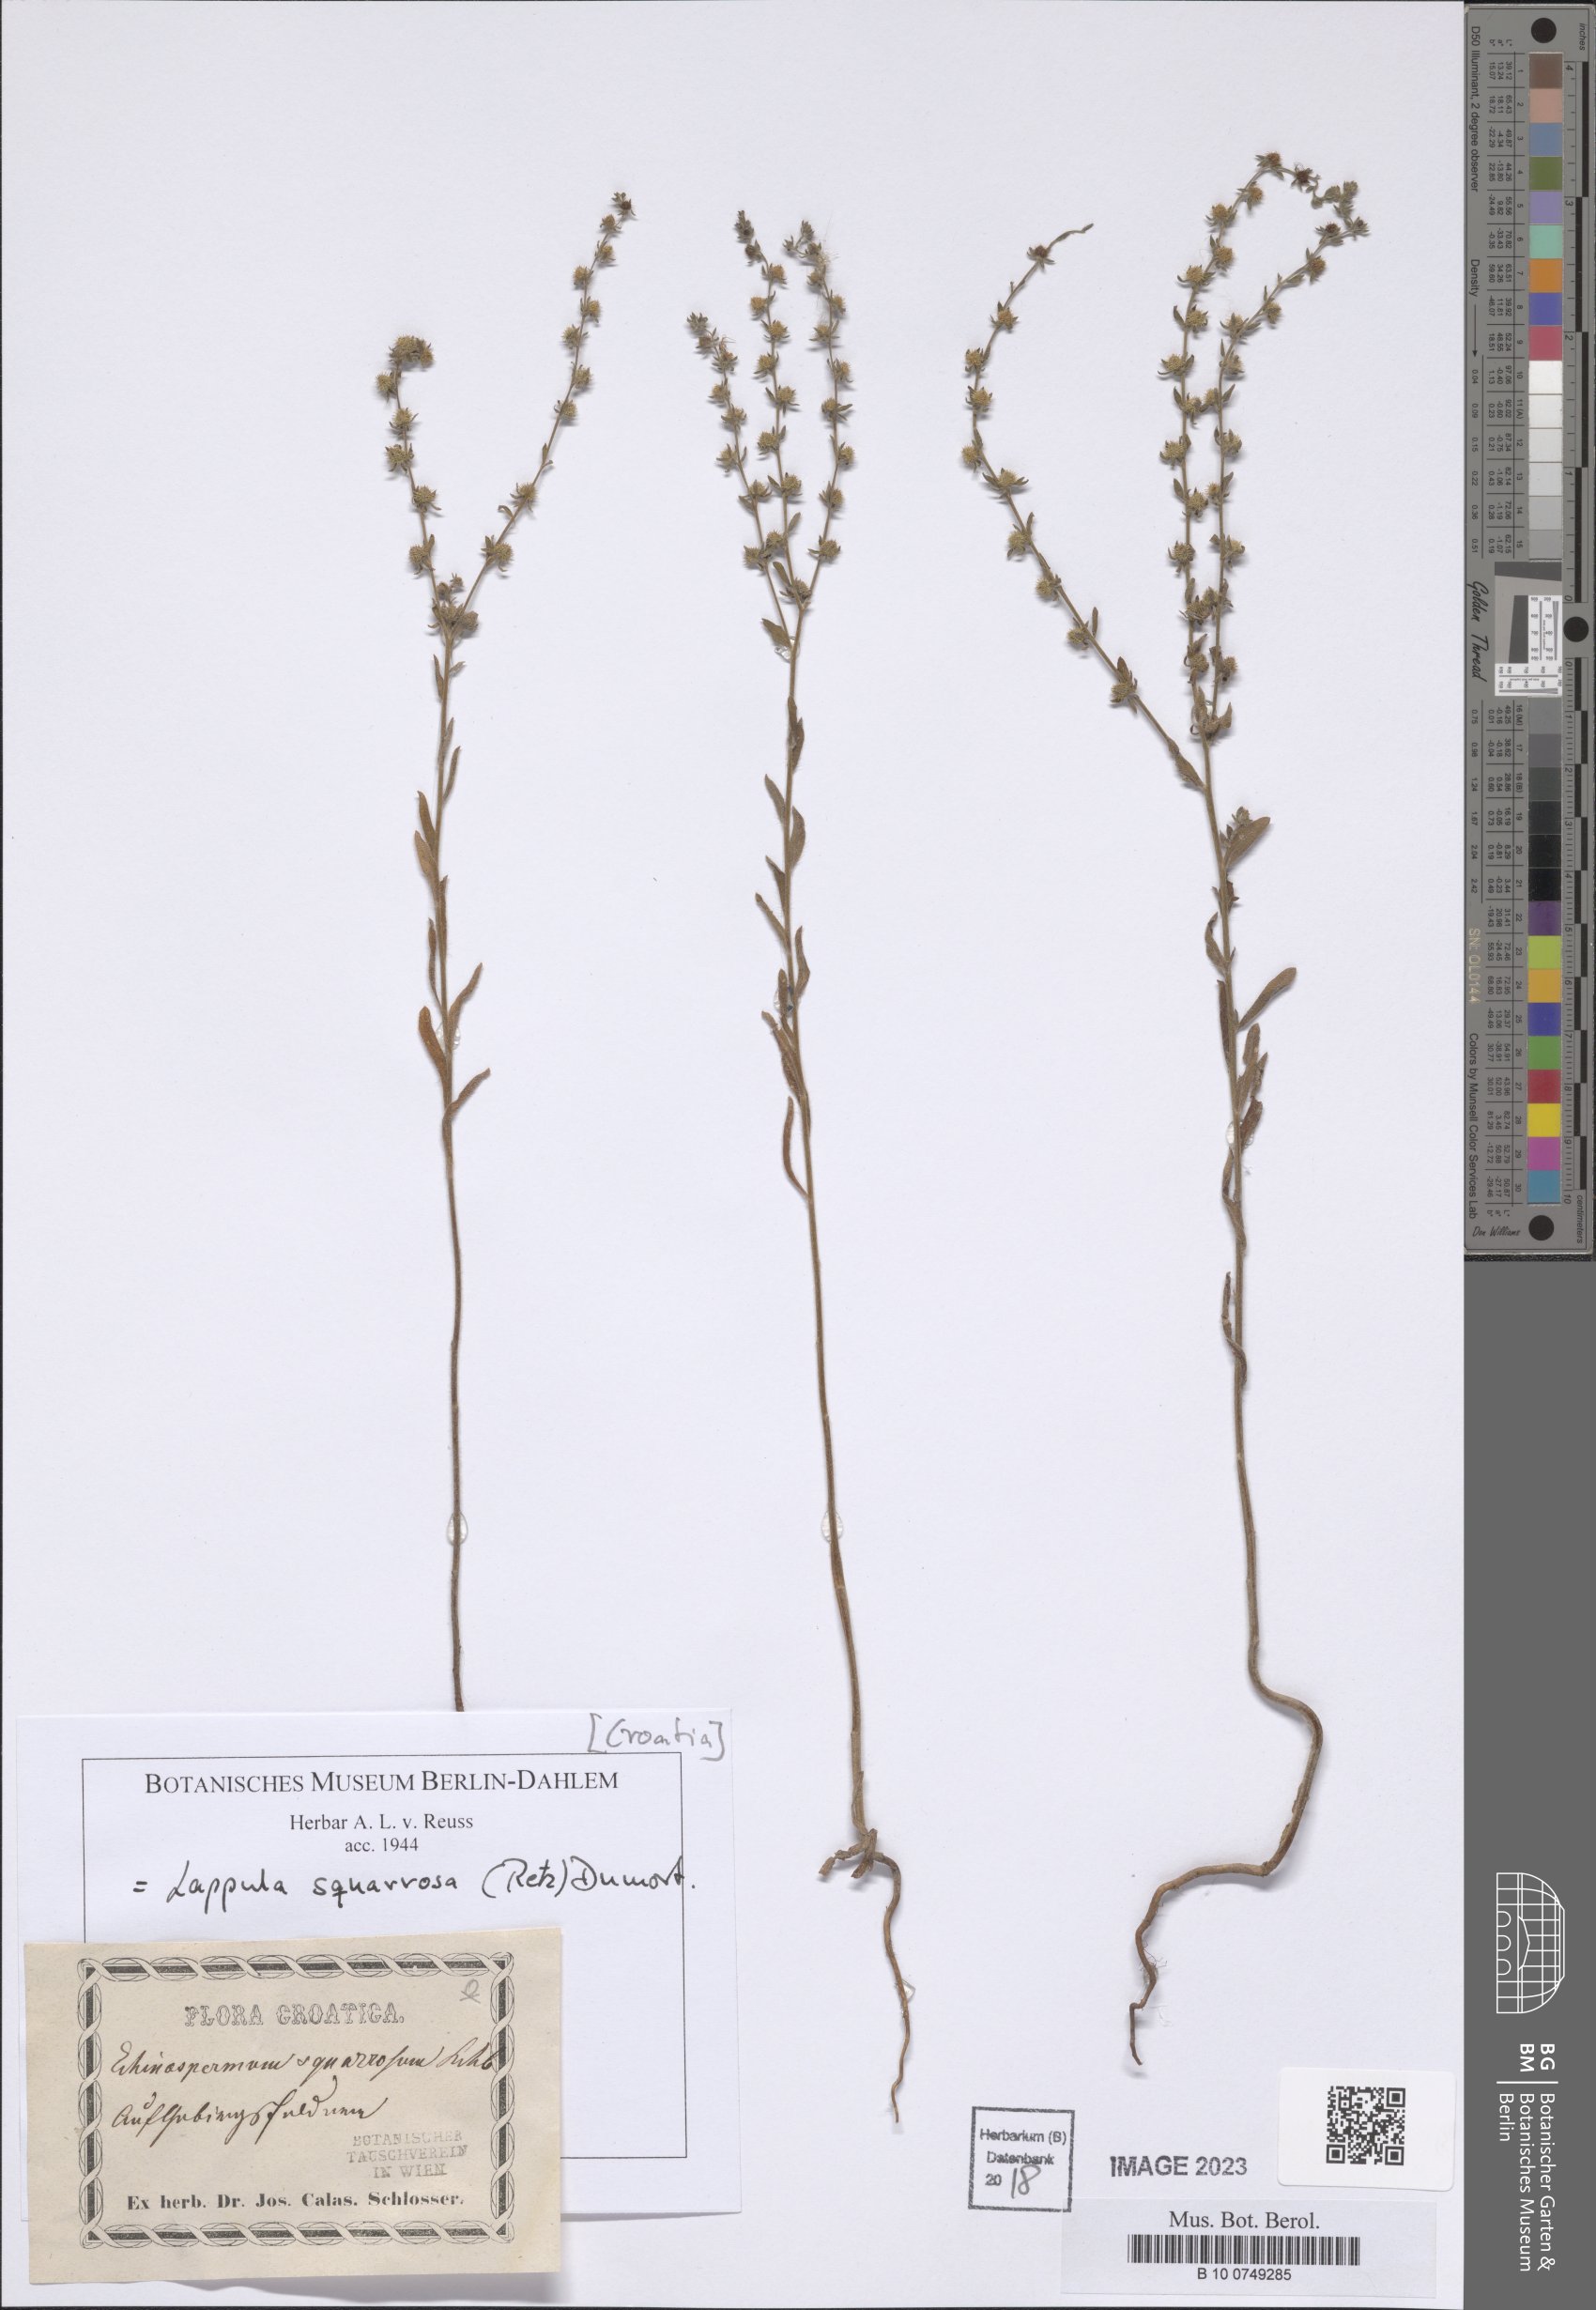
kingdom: Plantae
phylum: Tracheophyta
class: Magnoliopsida
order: Boraginales
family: Boraginaceae
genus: Lappula
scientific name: Lappula squarrosa
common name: European stickseed
